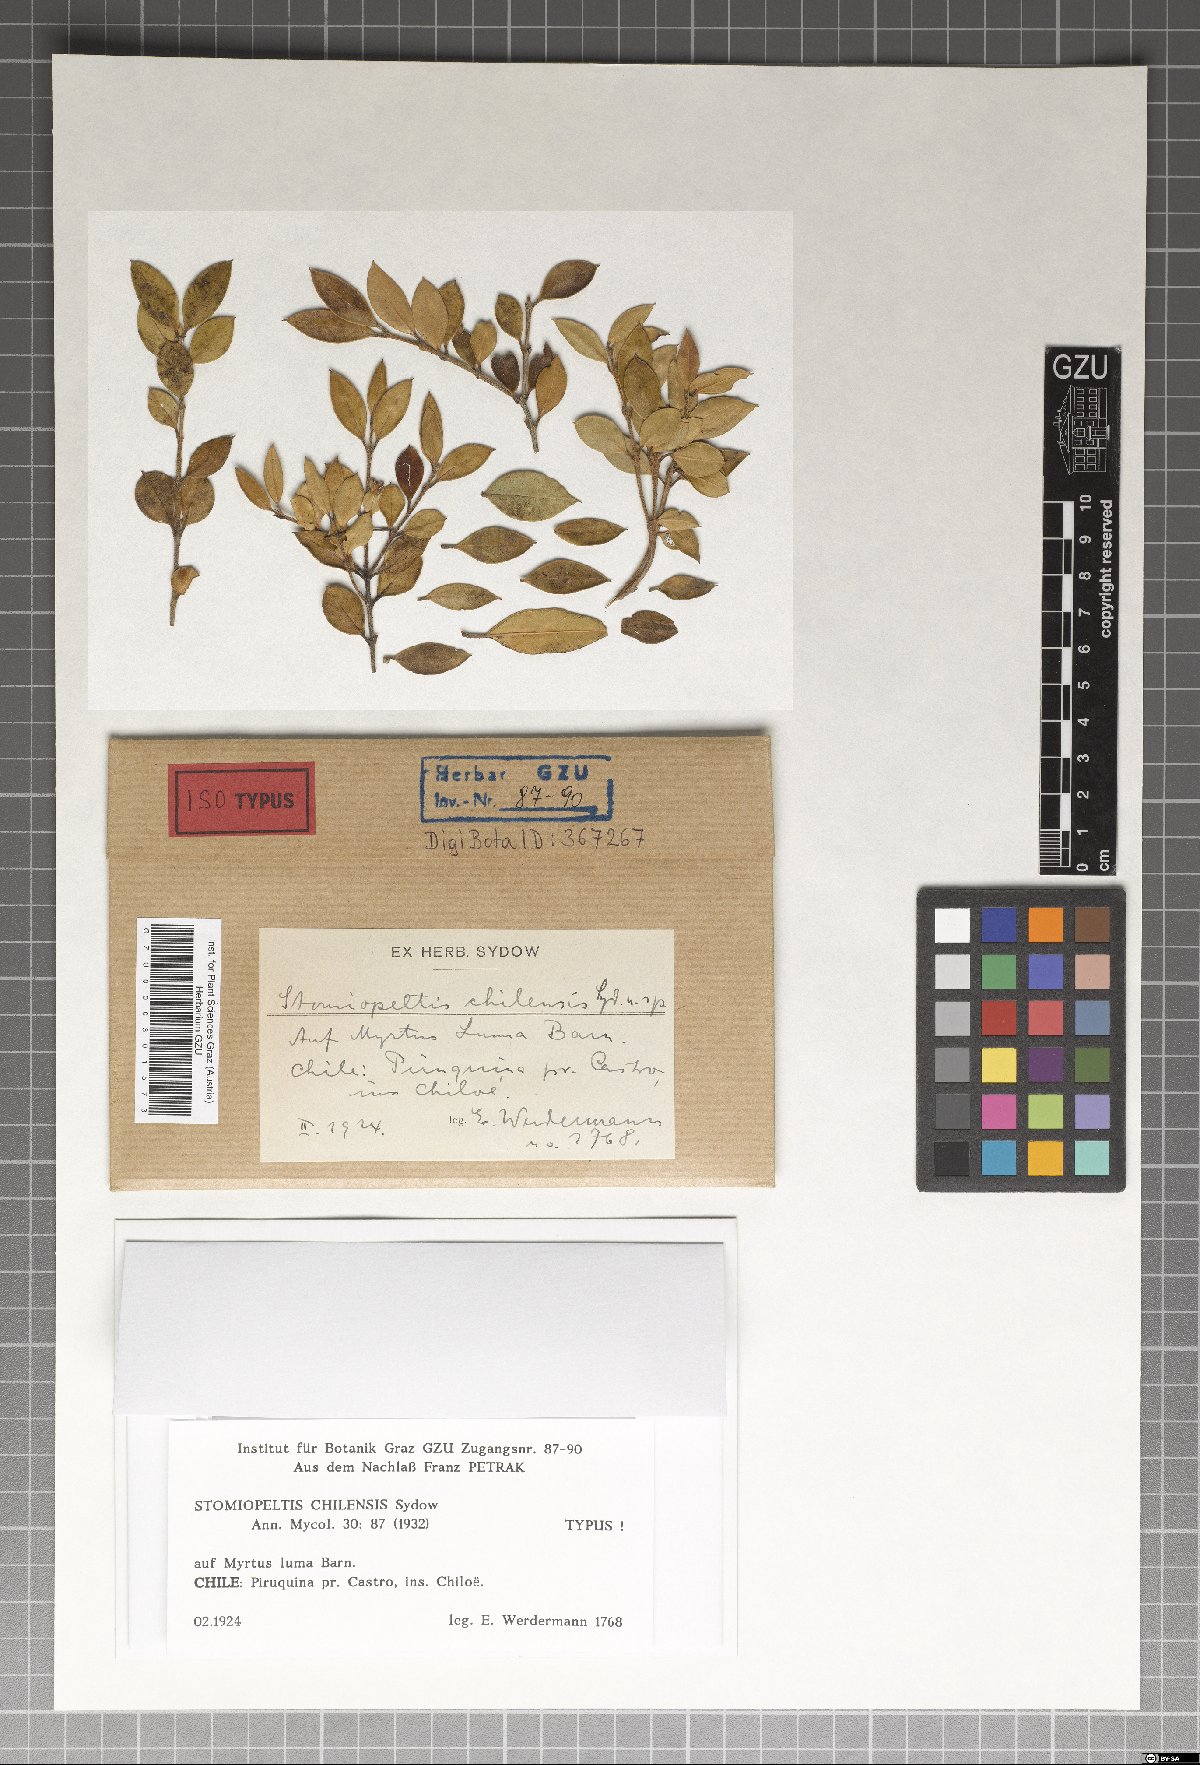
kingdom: Fungi
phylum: Ascomycota
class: Dothideomycetes
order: Microthyriales
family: Micropeltidaceae
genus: Stomiopeltis
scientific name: Stomiopeltis chilensis
